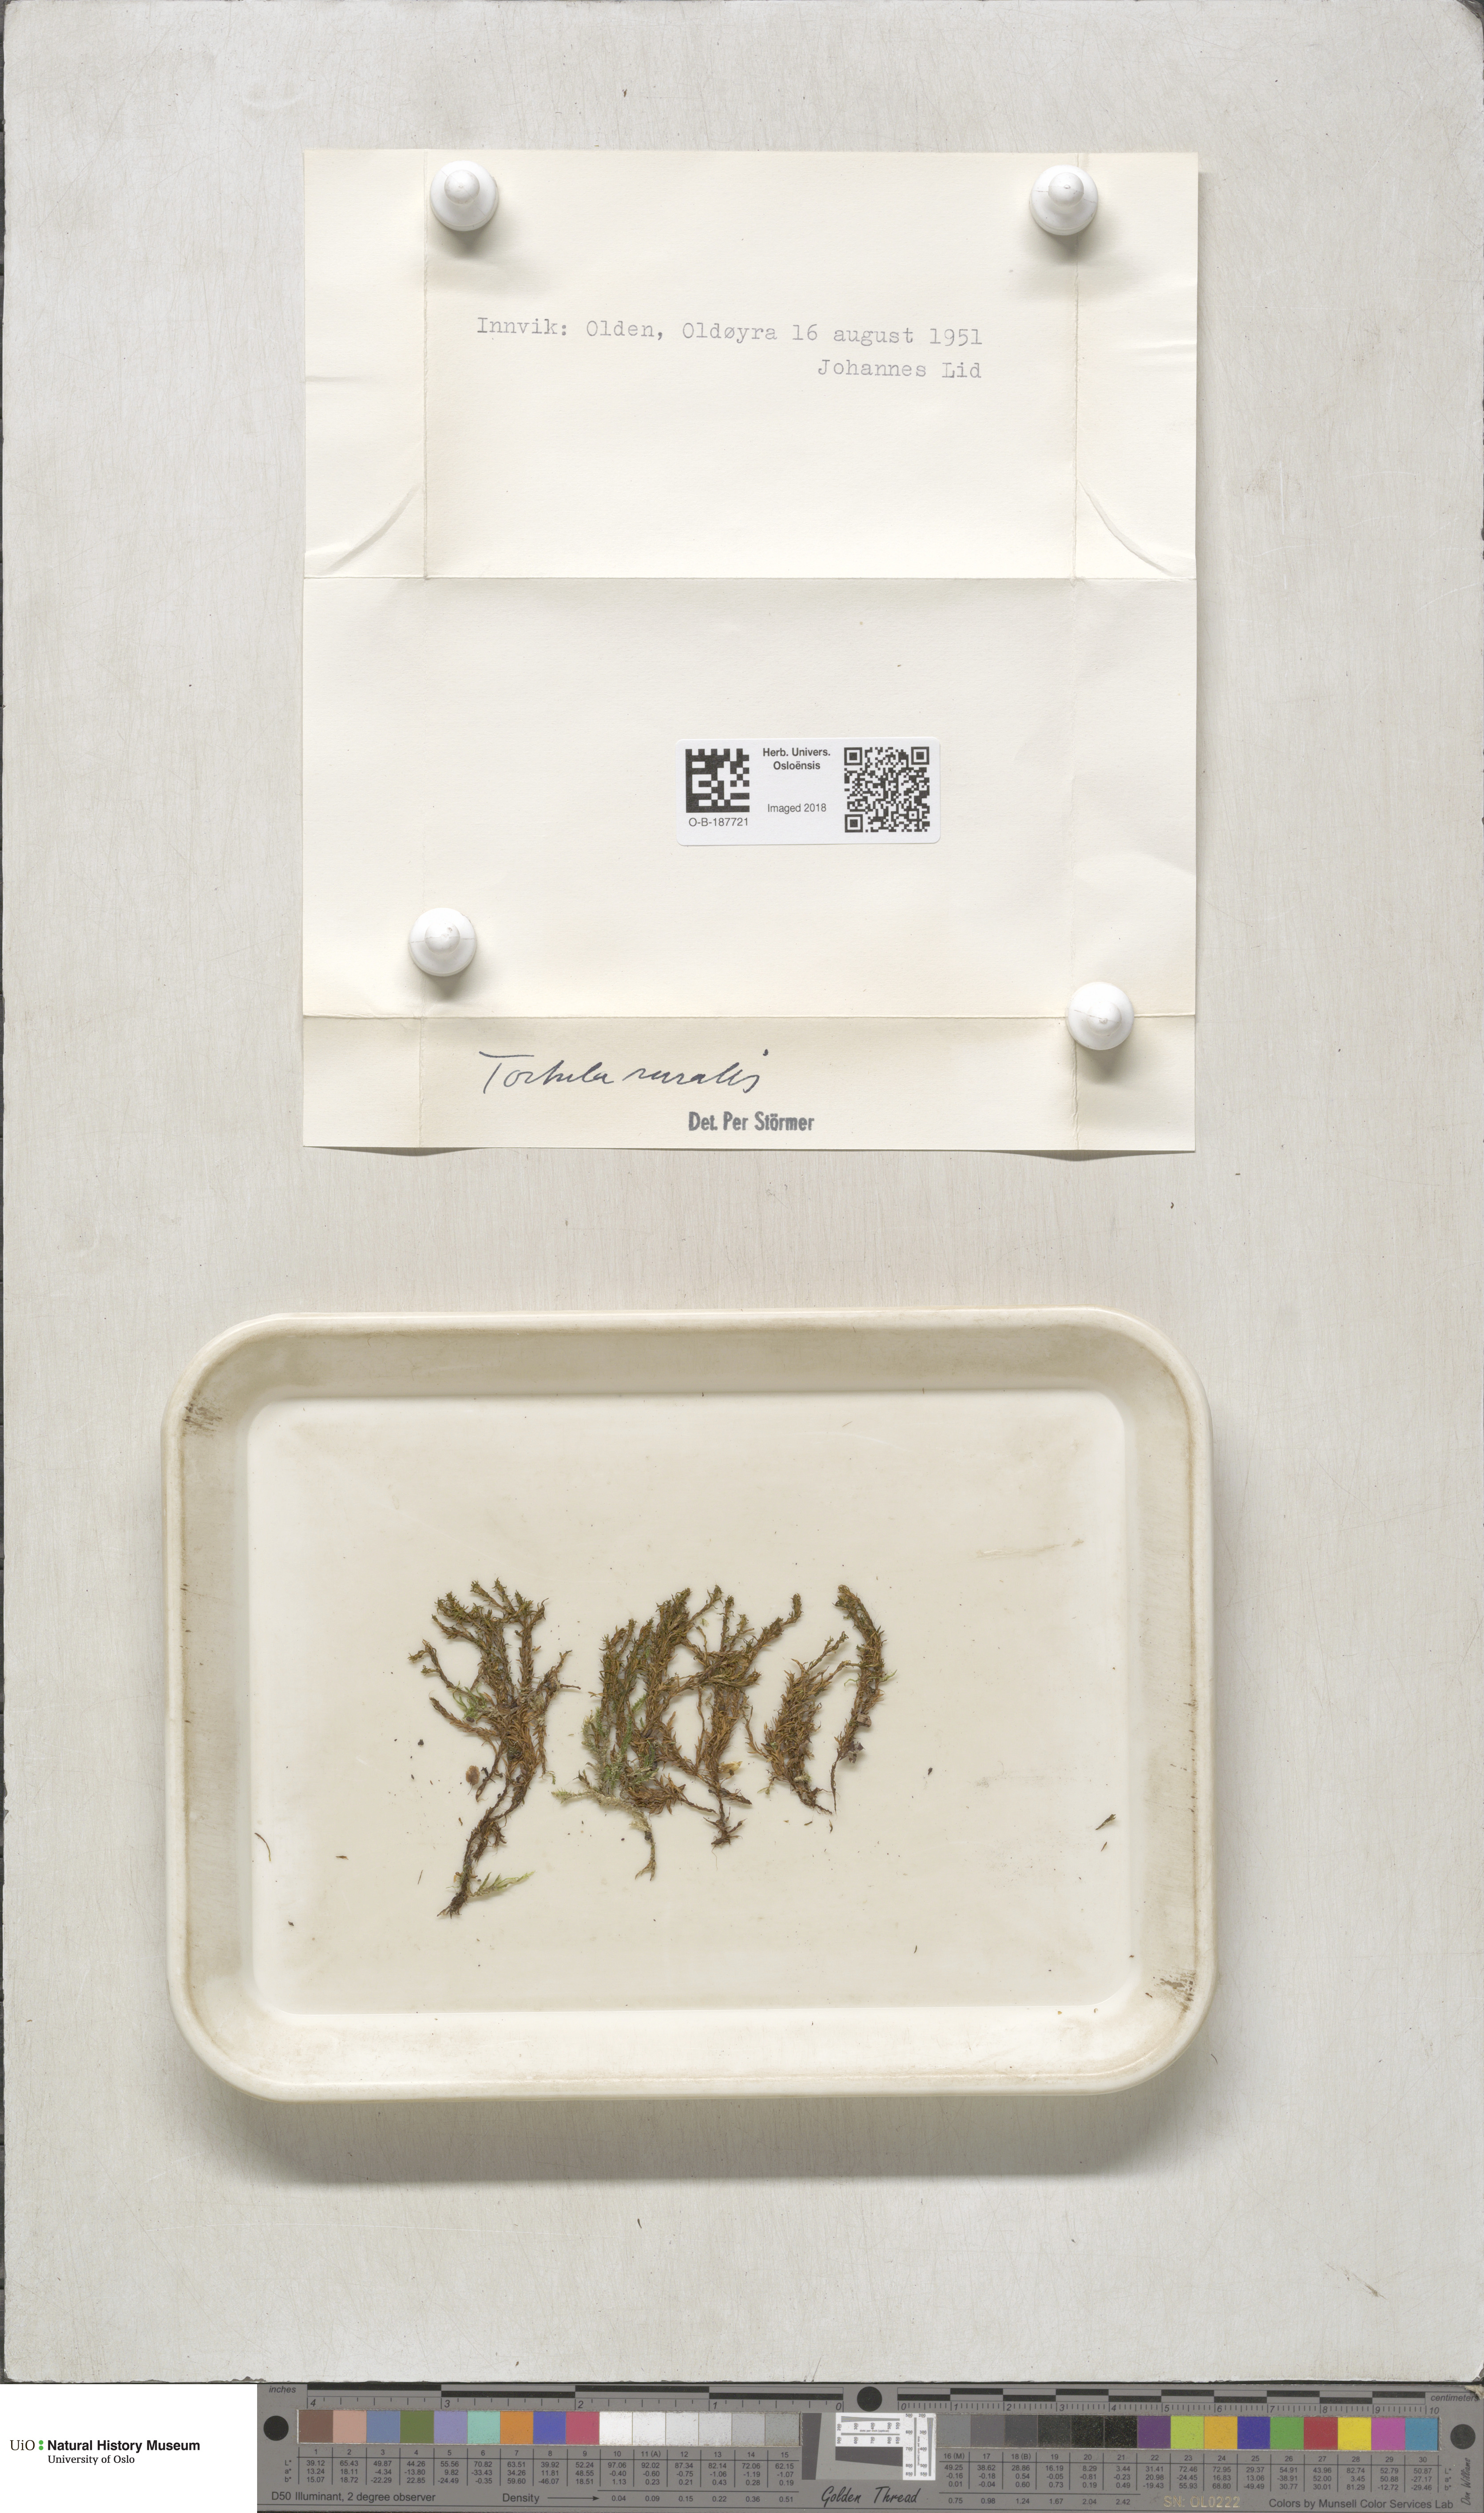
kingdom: Plantae
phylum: Bryophyta
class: Bryopsida
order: Pottiales
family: Pottiaceae
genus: Syntrichia
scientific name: Syntrichia ruralis
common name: Sidewalk screw moss
